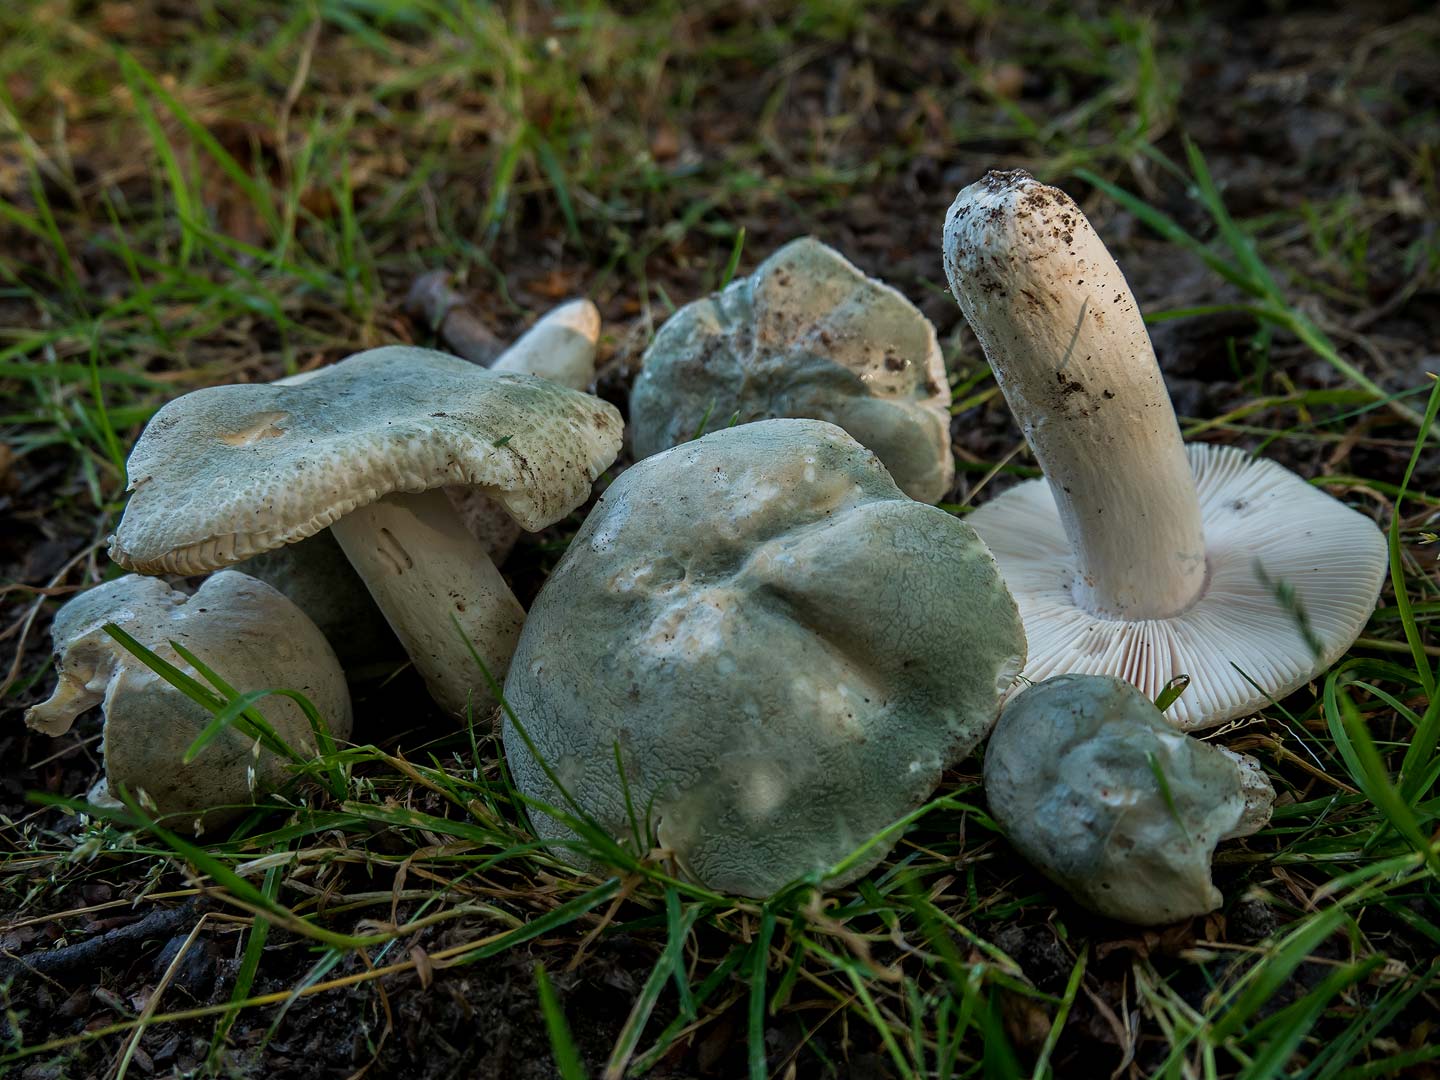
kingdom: Fungi
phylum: Basidiomycota
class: Agaricomycetes
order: Russulales
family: Russulaceae
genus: Russula
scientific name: Russula virescens
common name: spanskgrøn skørhat
